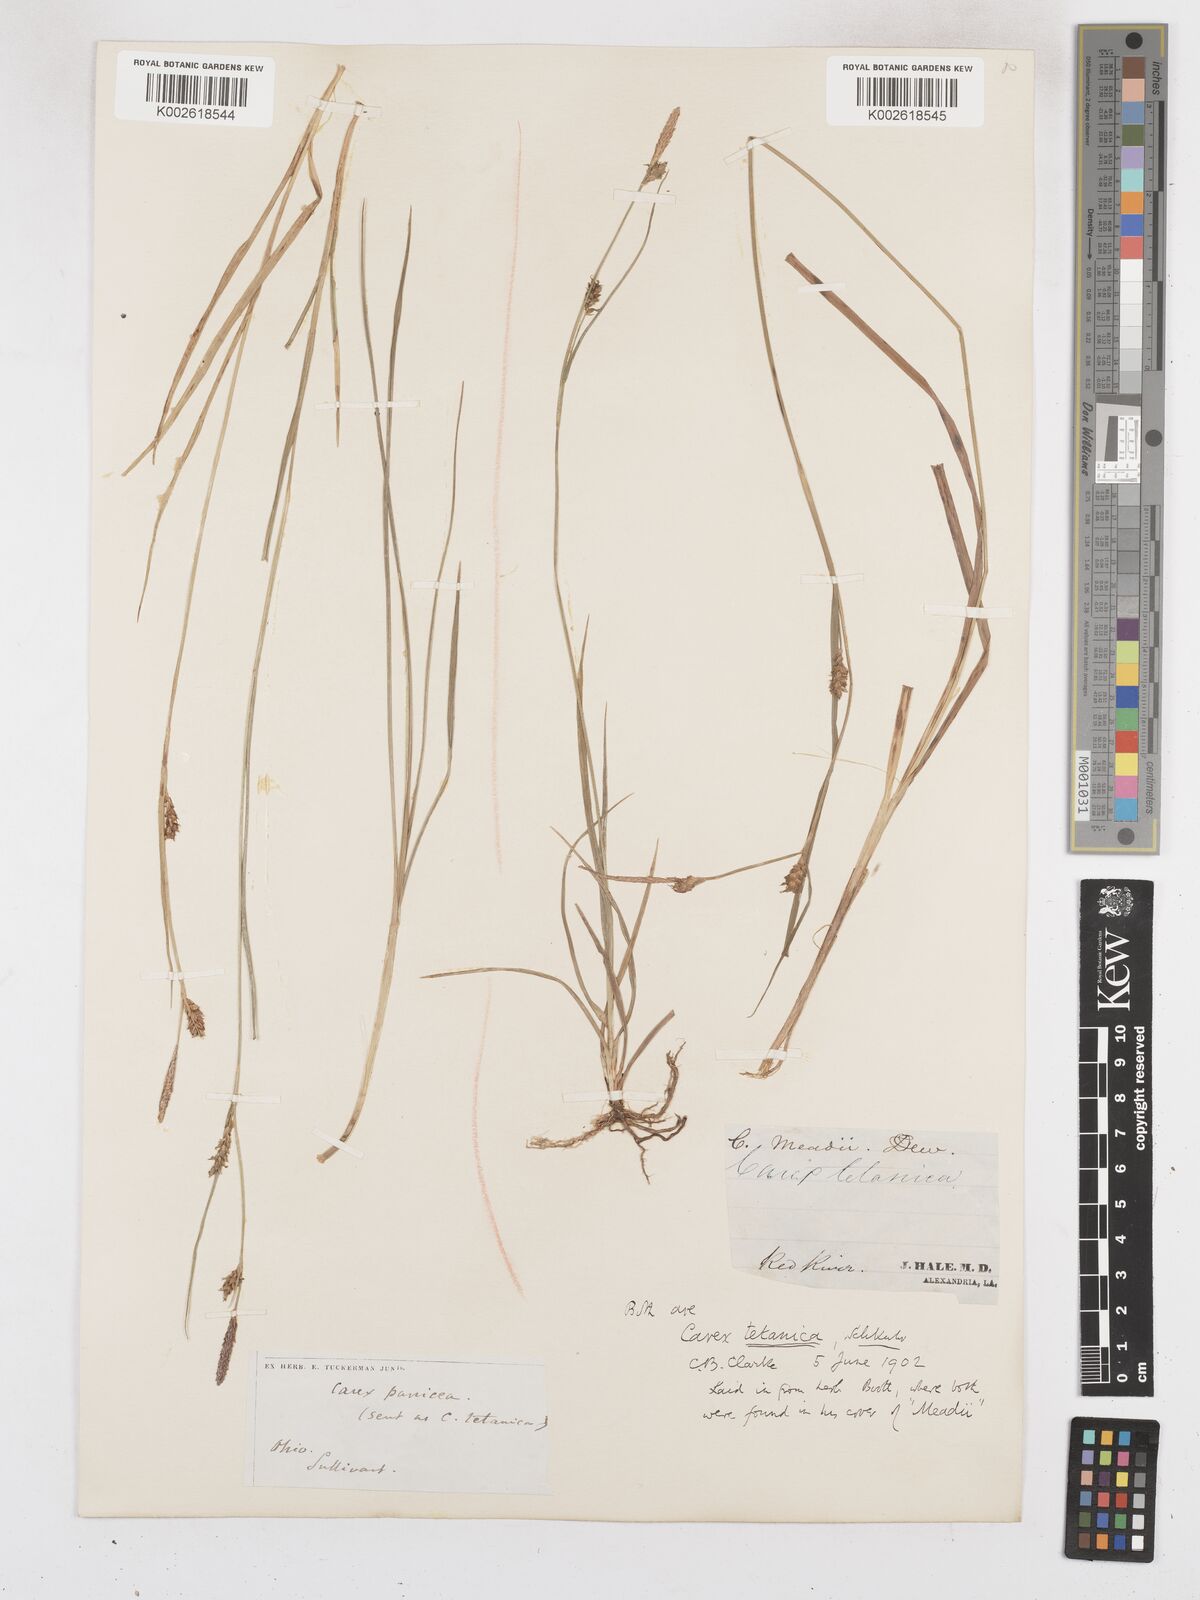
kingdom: Plantae
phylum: Tracheophyta
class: Liliopsida
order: Poales
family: Cyperaceae
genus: Carex
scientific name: Carex meadii
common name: Mead's sedge
